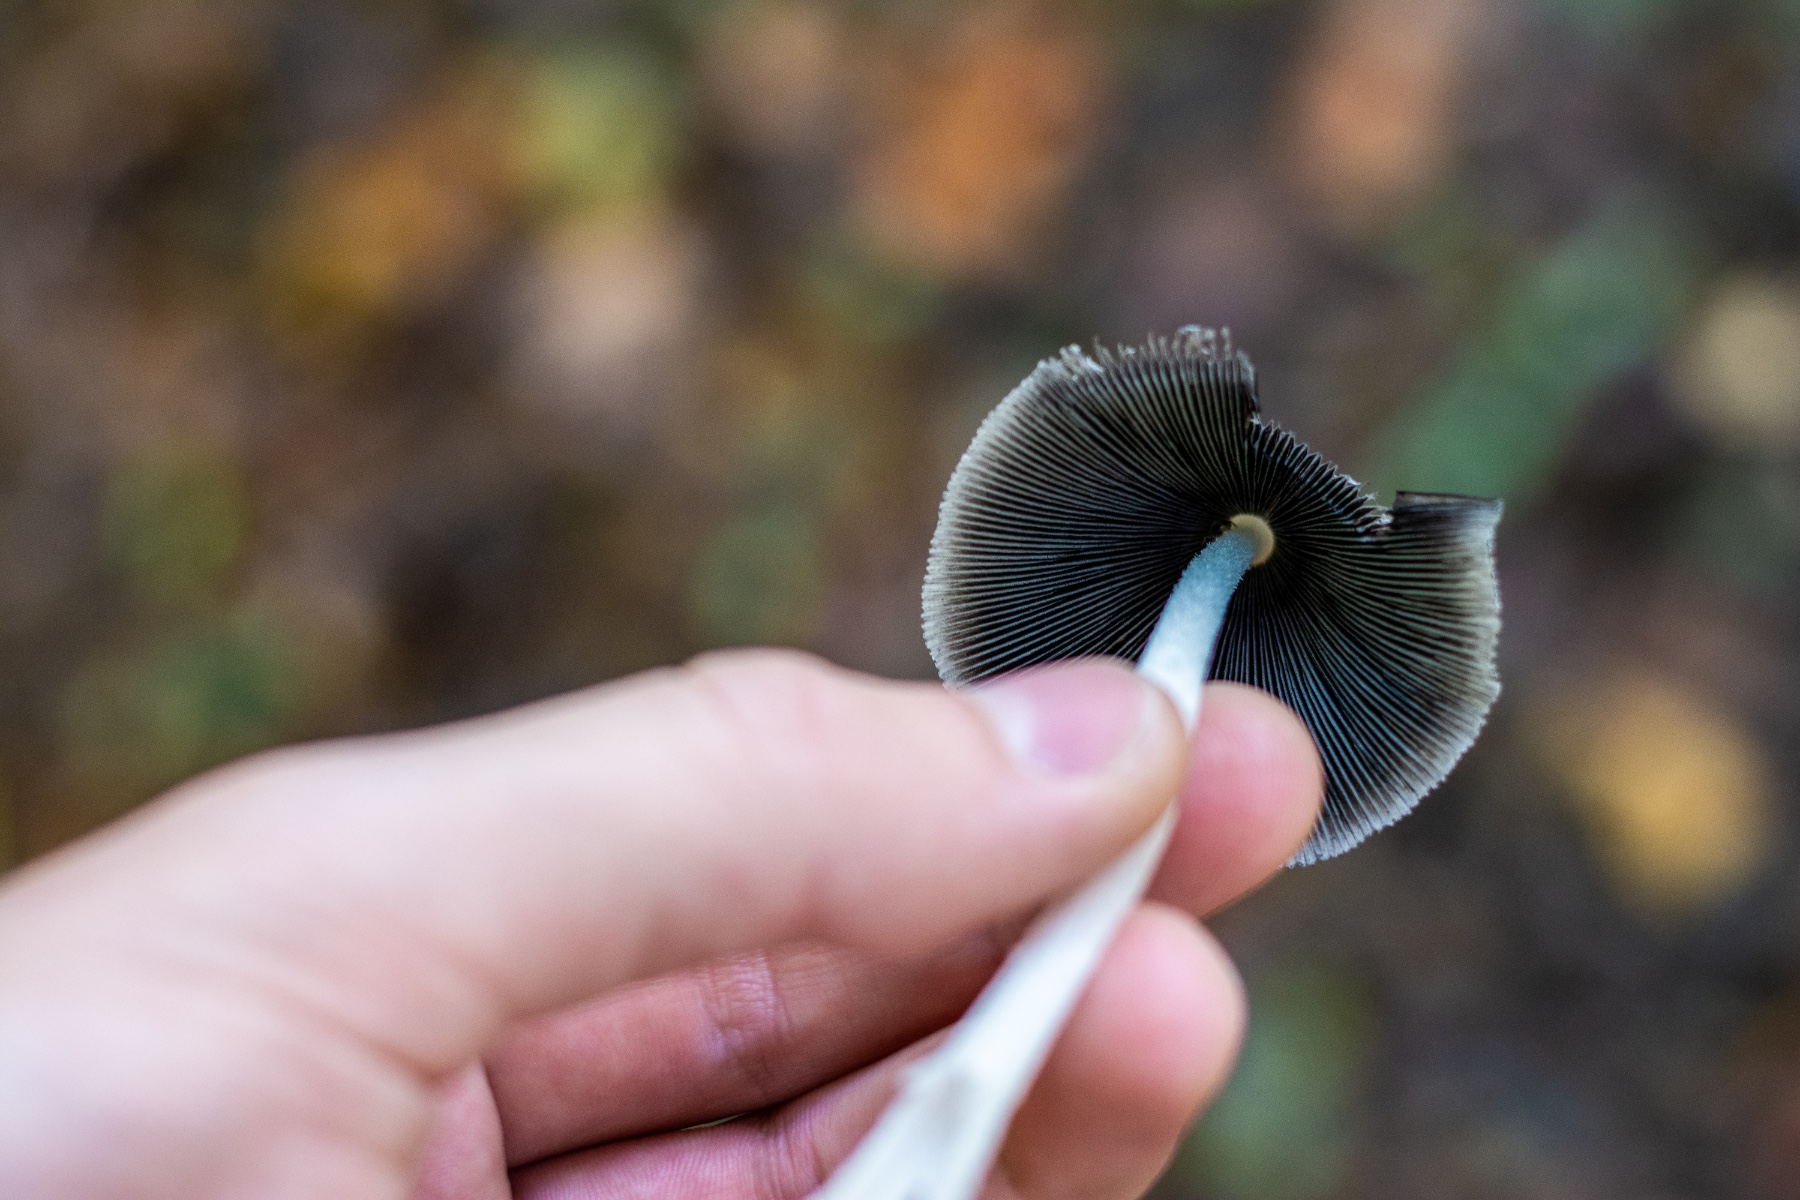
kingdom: Fungi
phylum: Basidiomycota
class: Agaricomycetes
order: Agaricales
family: Psathyrellaceae
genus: Coprinopsis
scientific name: Coprinopsis lagopus
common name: dunstokket blækhat
